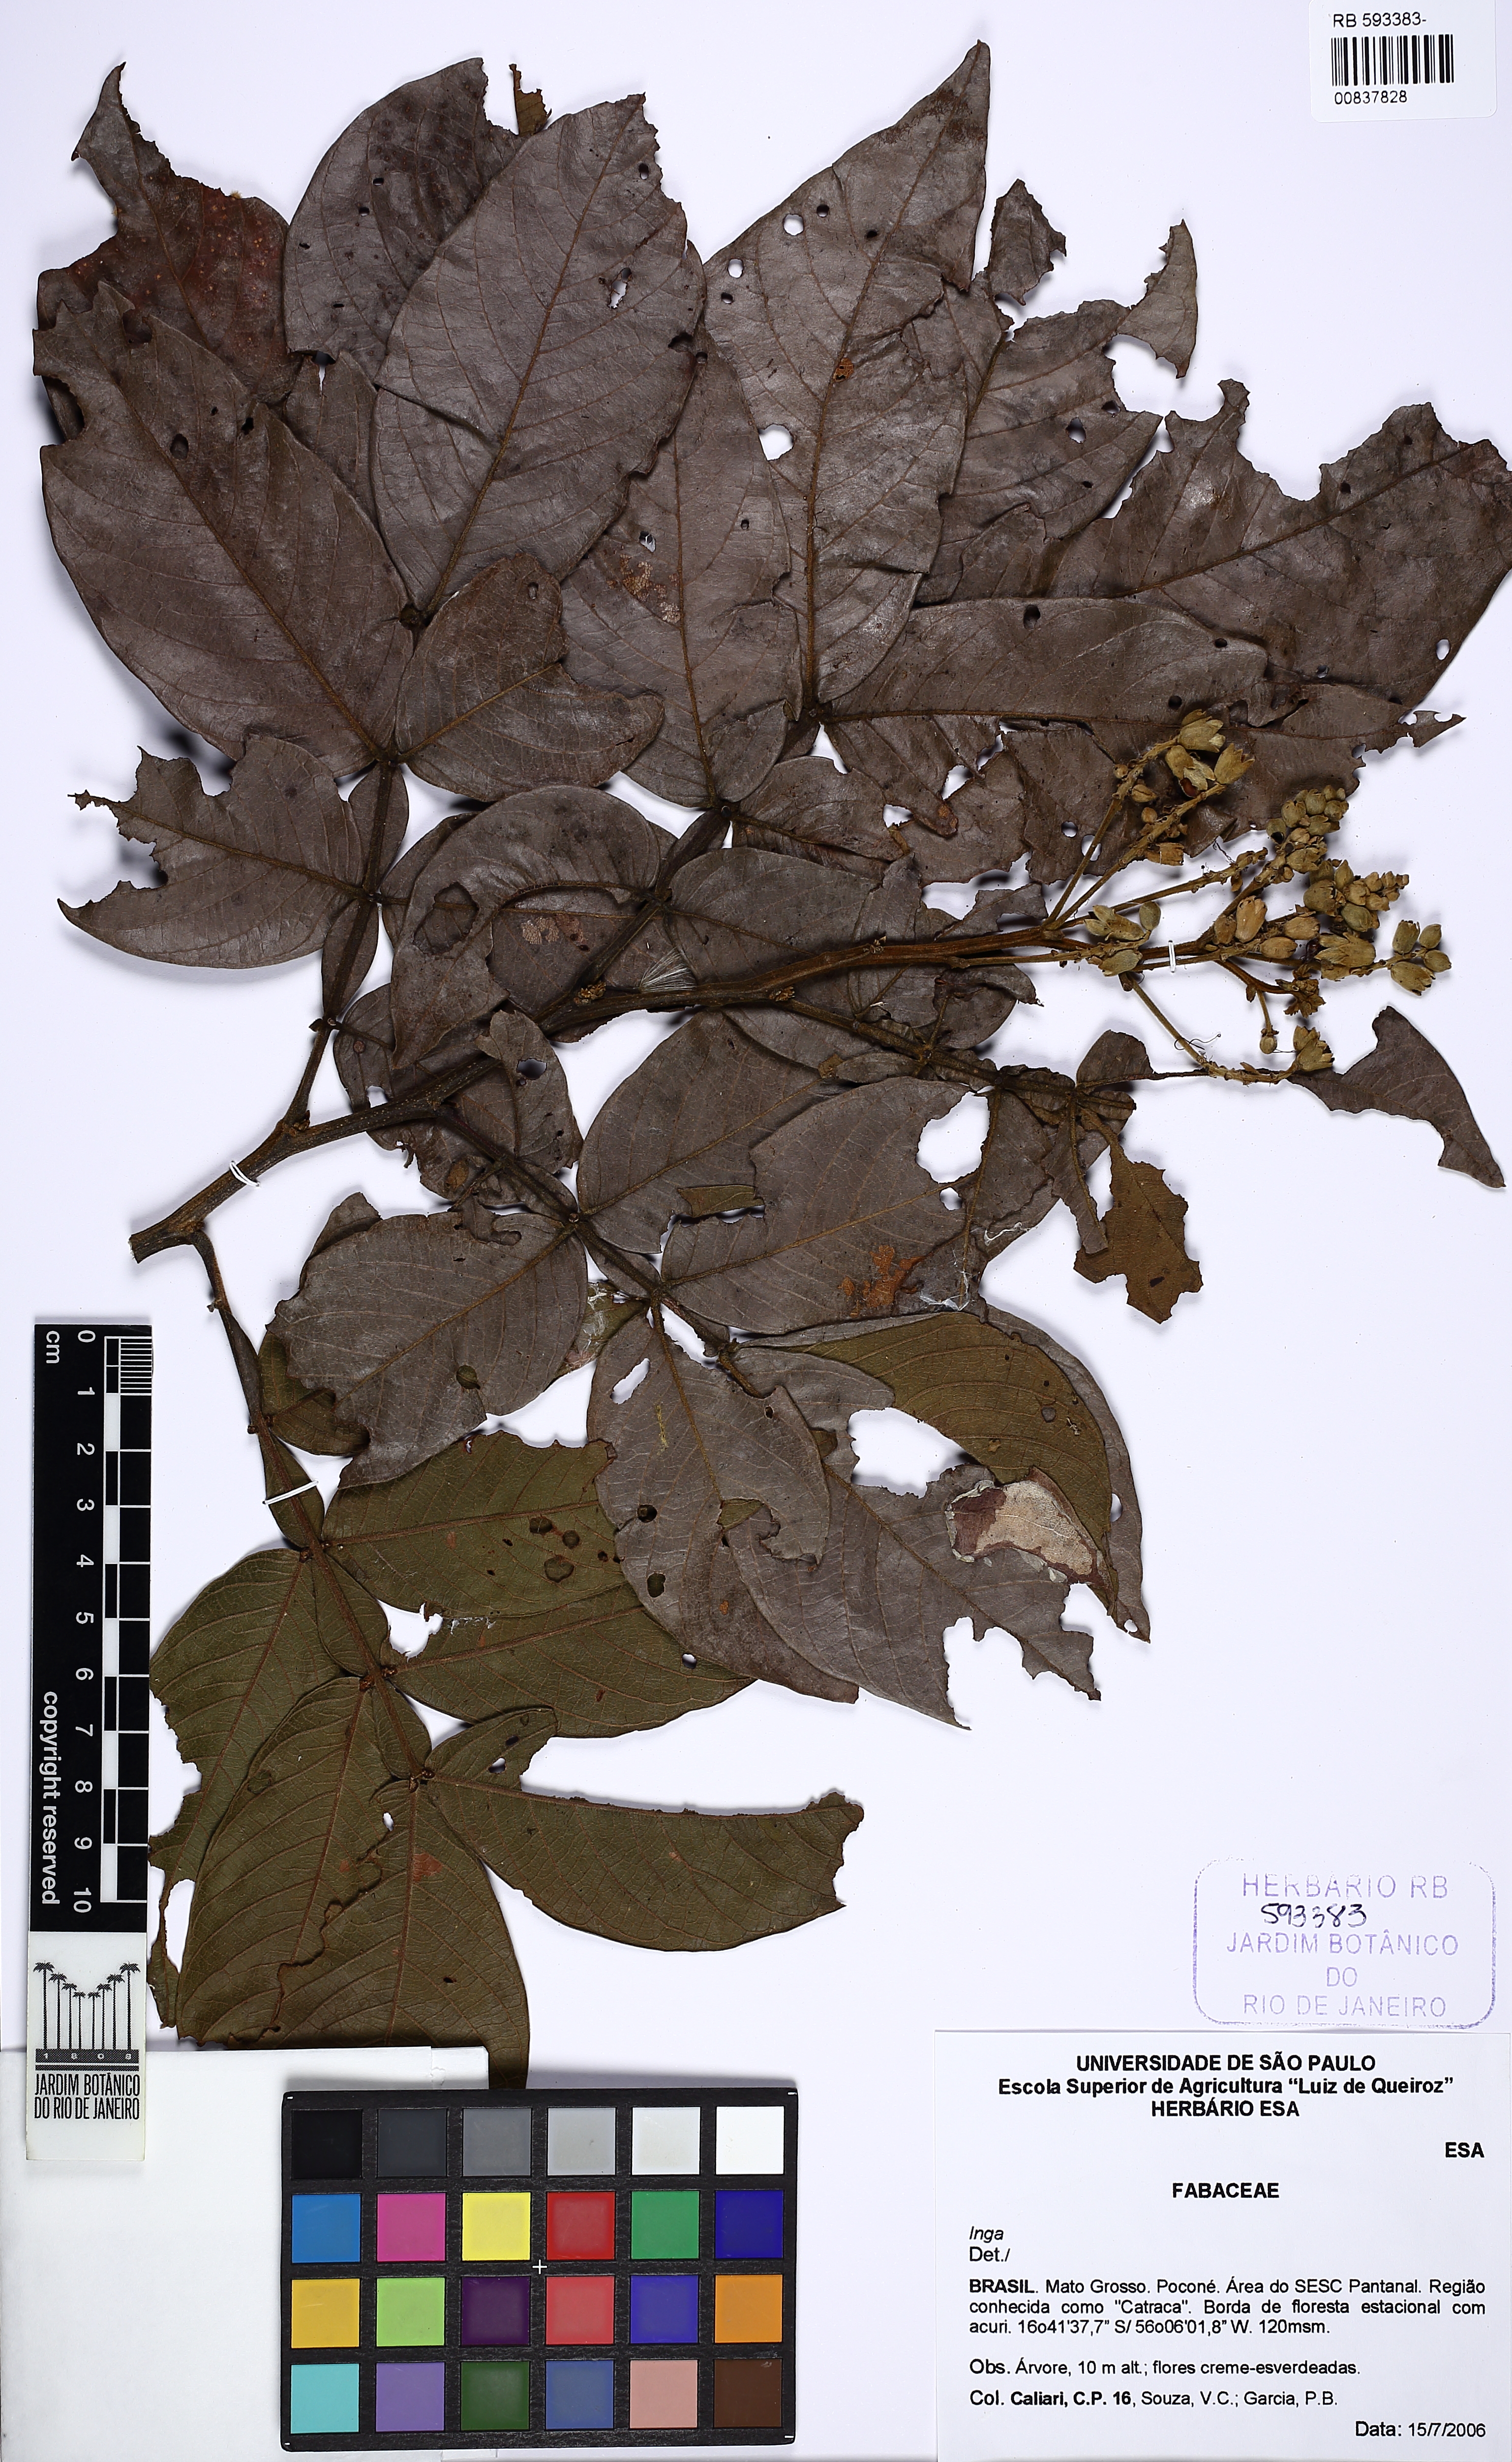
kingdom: Plantae
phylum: Tracheophyta
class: Magnoliopsida
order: Fabales
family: Fabaceae
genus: Inga
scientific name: Inga
